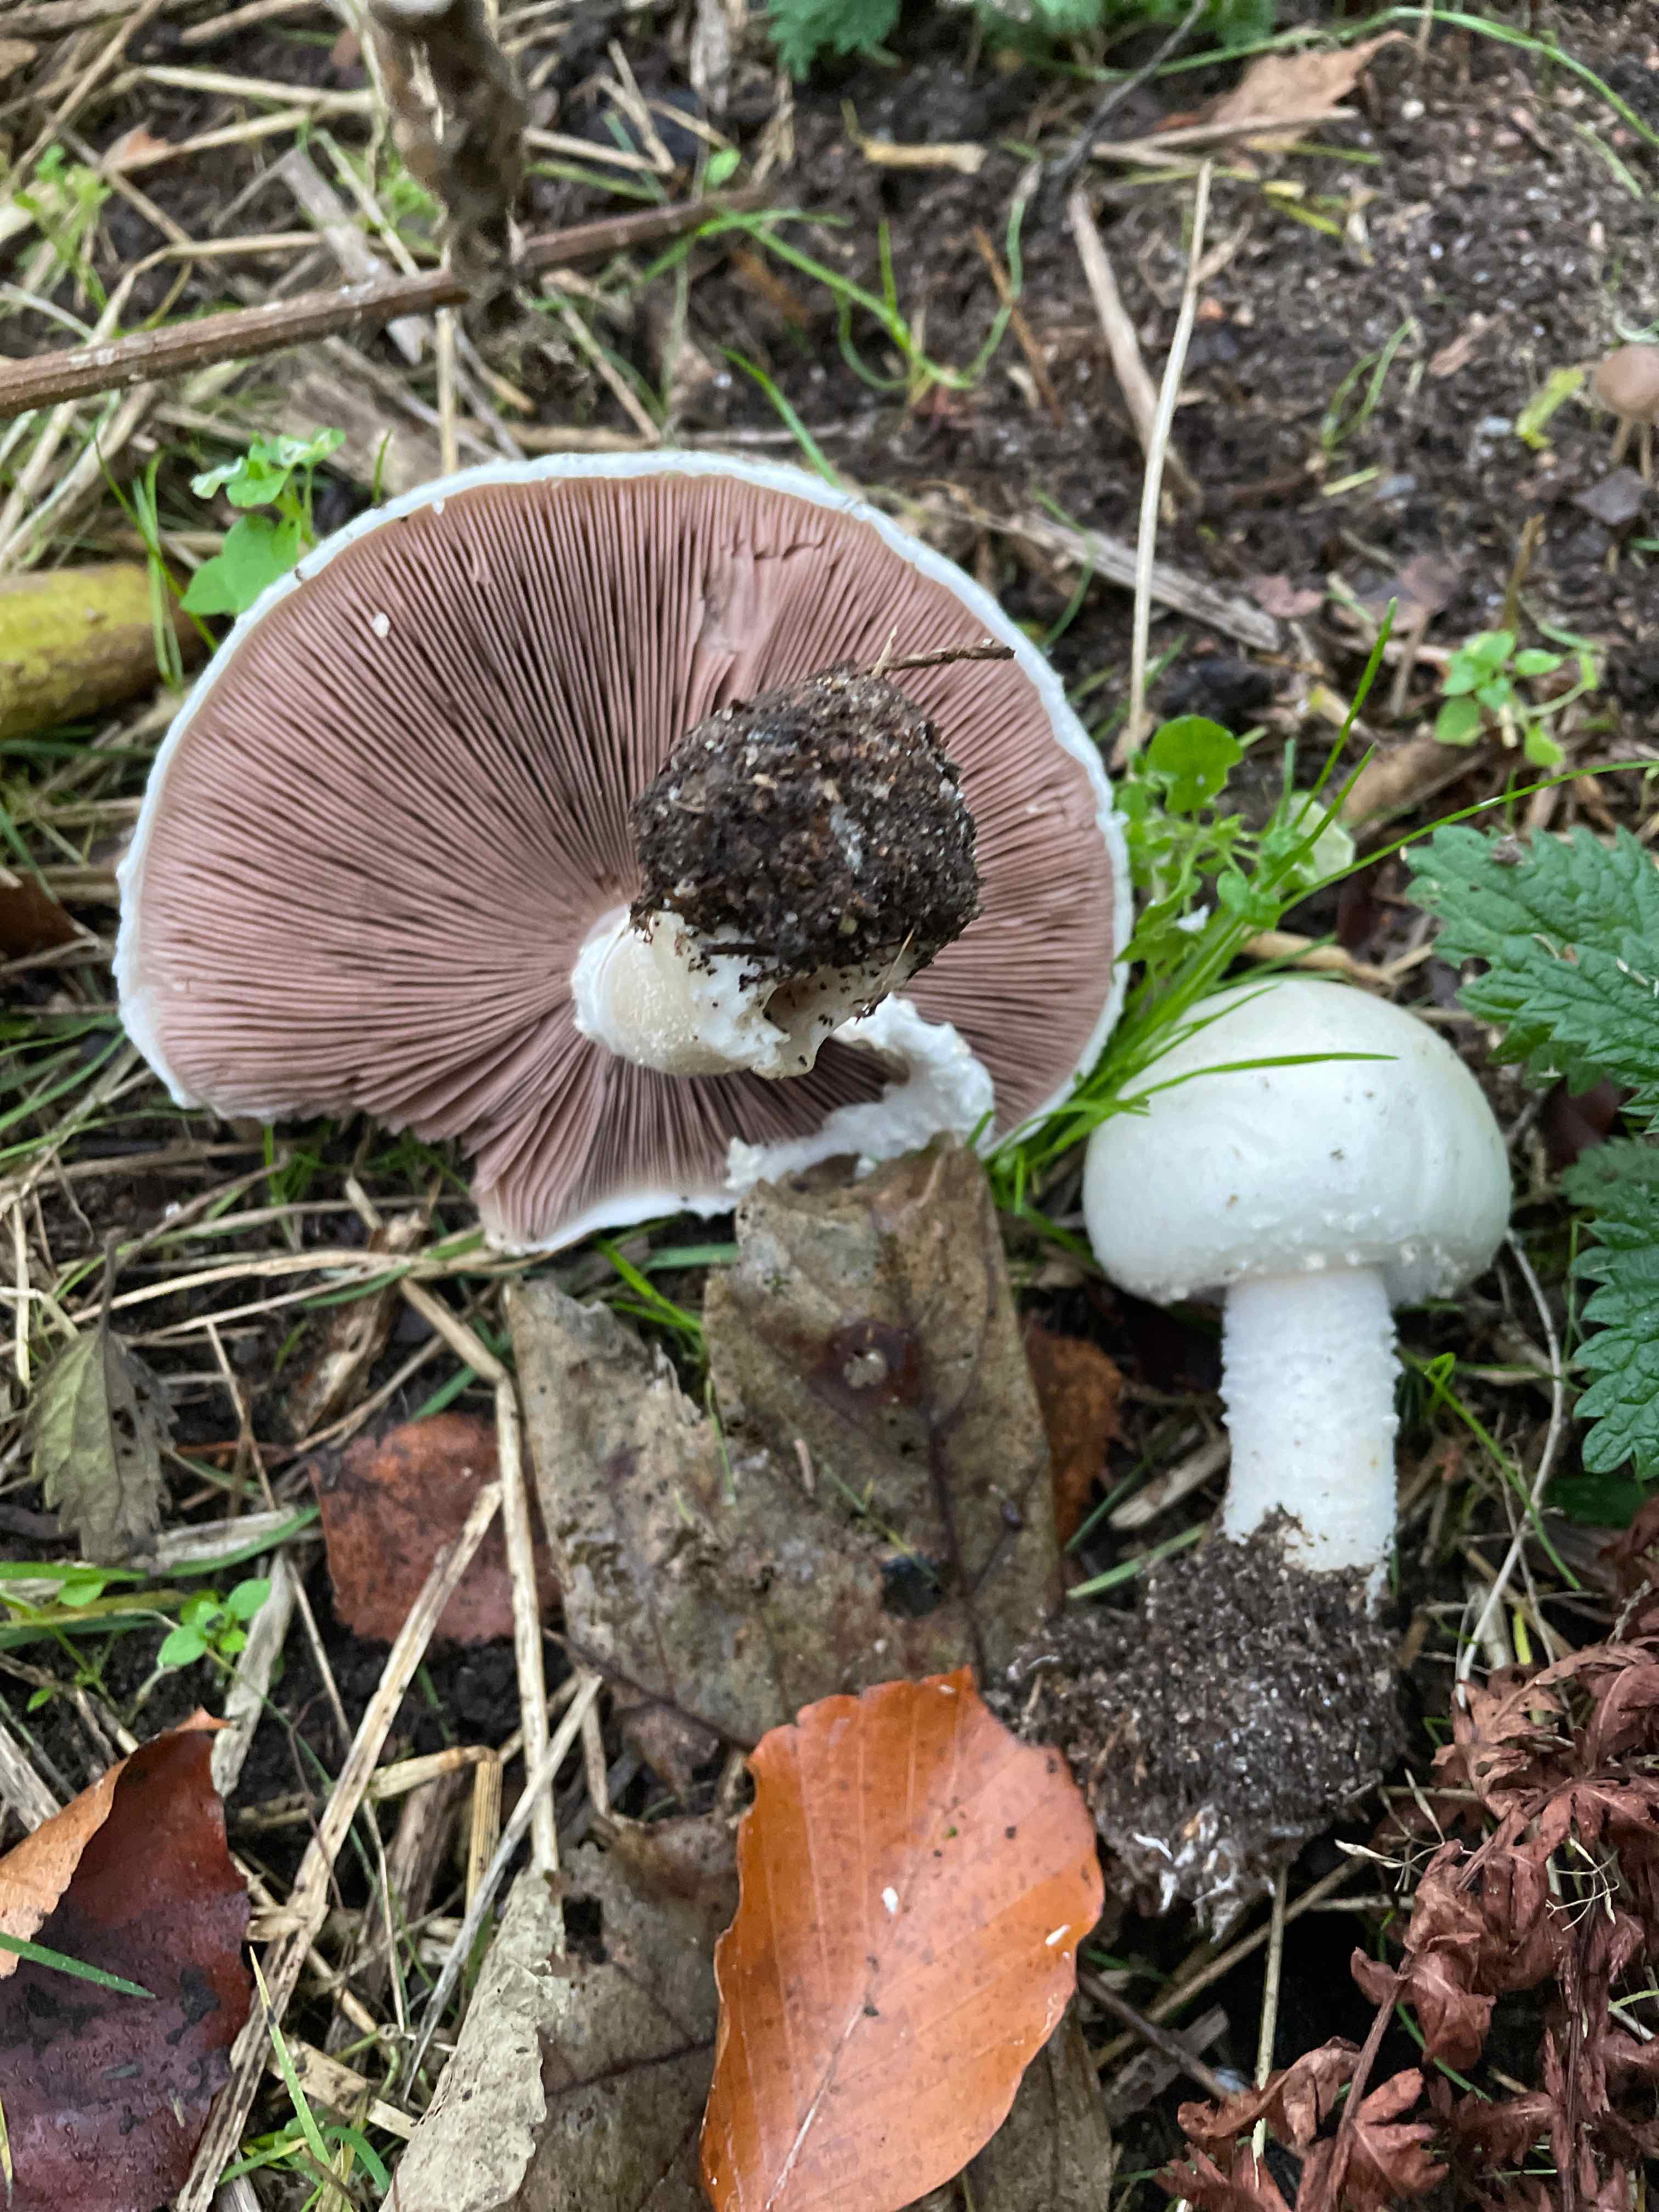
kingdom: Fungi
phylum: Basidiomycota
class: Agaricomycetes
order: Agaricales
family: Agaricaceae
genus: Agaricus
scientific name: Agaricus
